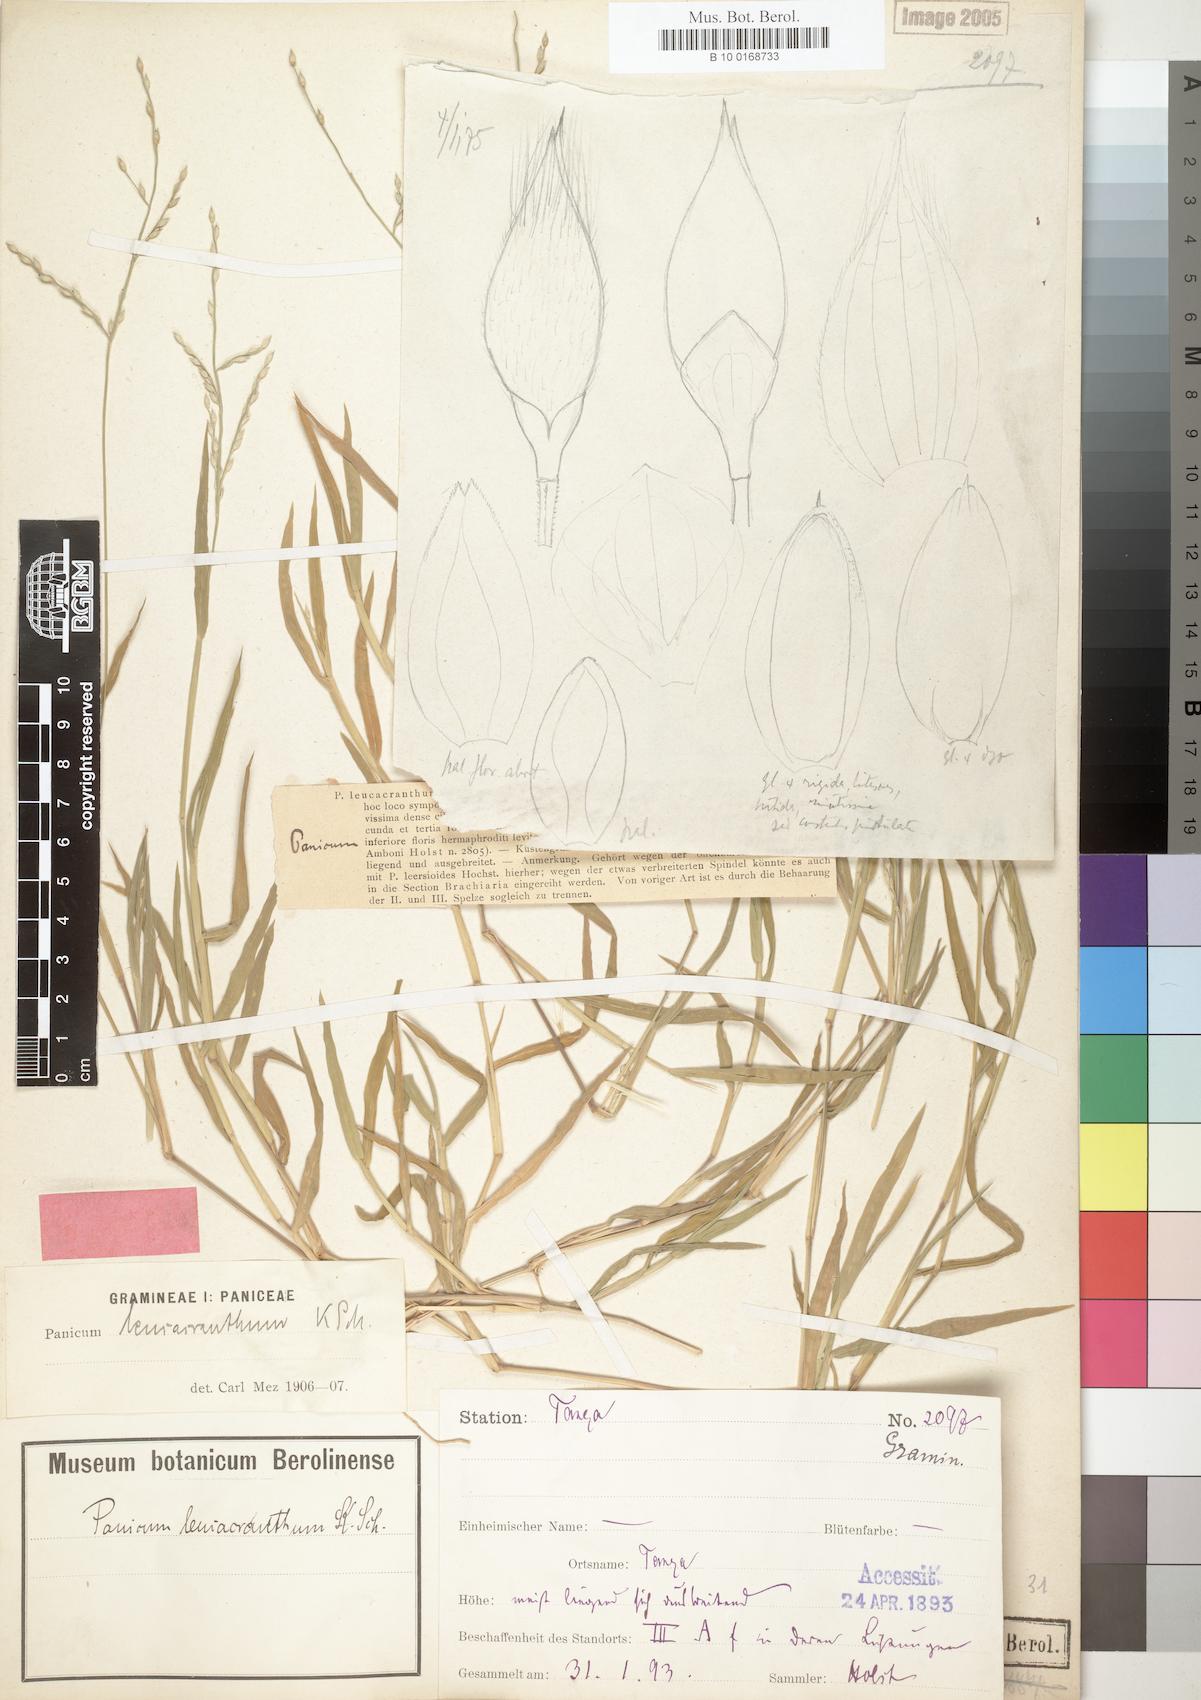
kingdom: Plantae
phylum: Tracheophyta
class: Liliopsida
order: Poales
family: Poaceae
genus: Urochloa
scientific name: Urochloa xantholeuca
